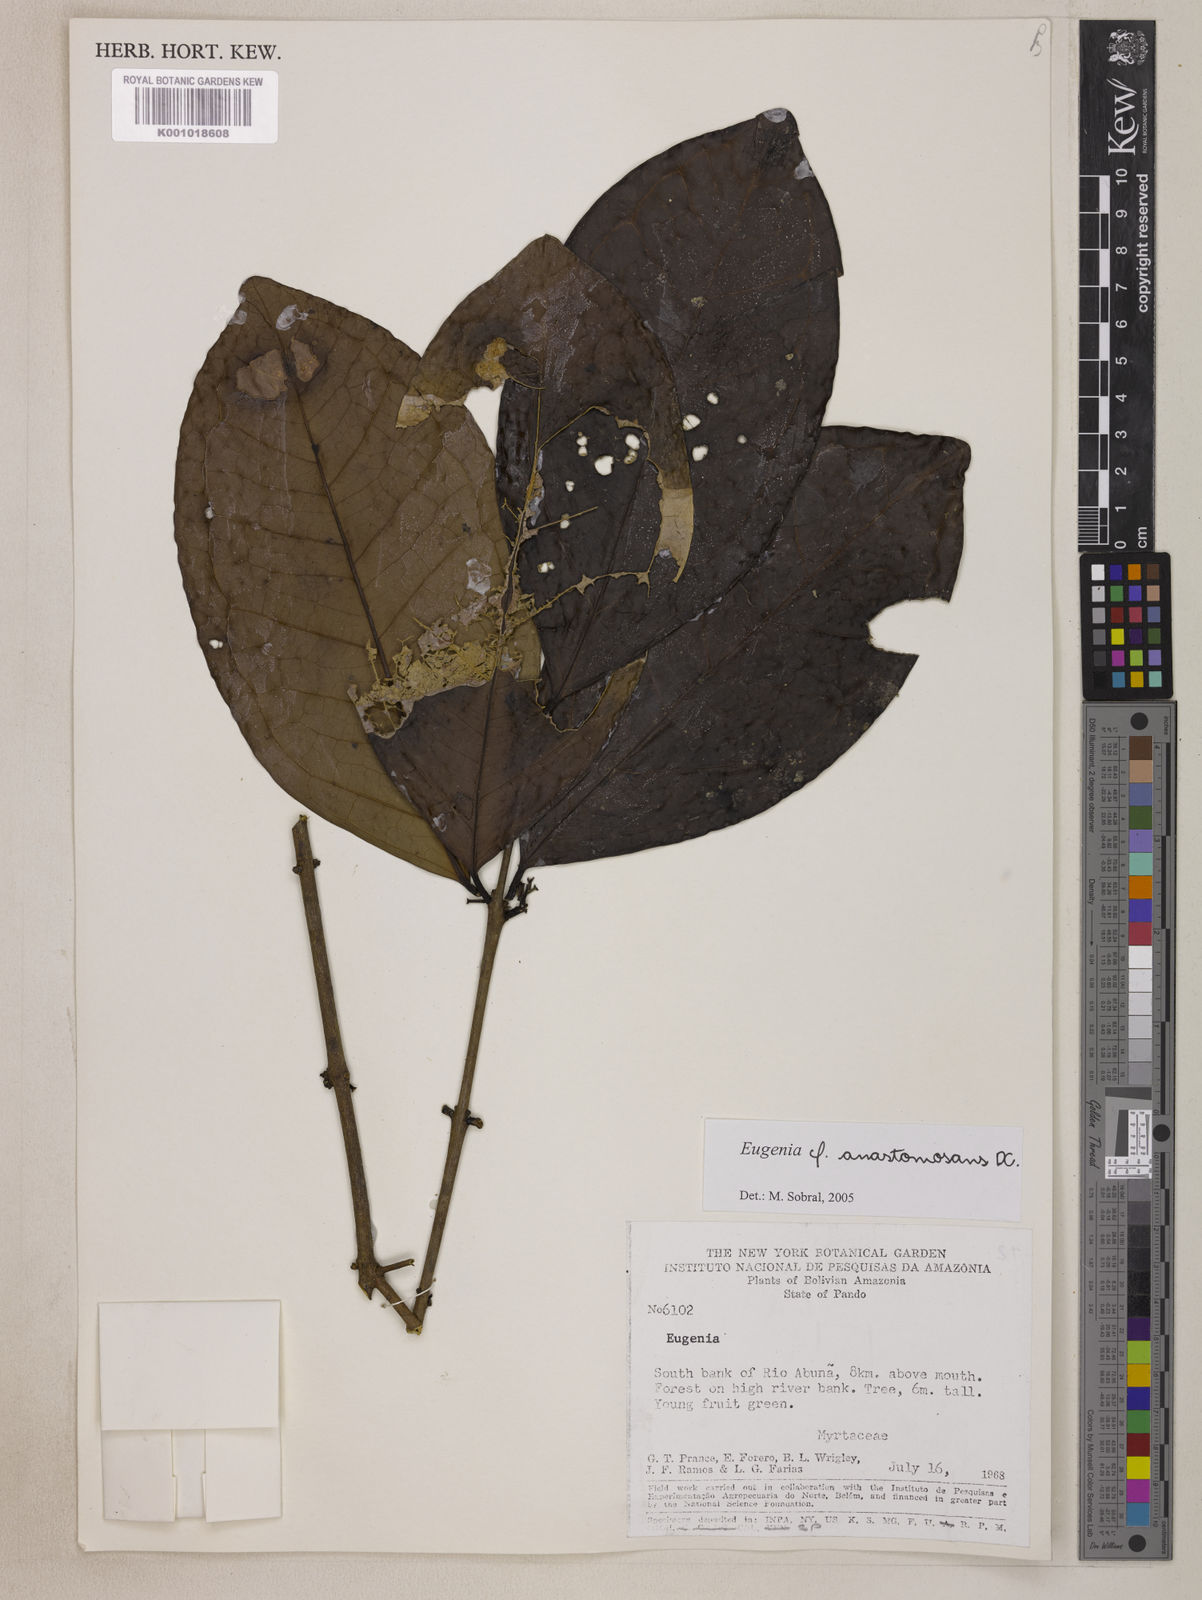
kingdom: Plantae
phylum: Tracheophyta
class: Magnoliopsida
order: Myrtales
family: Myrtaceae
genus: Eugenia
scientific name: Eugenia anastomosans
